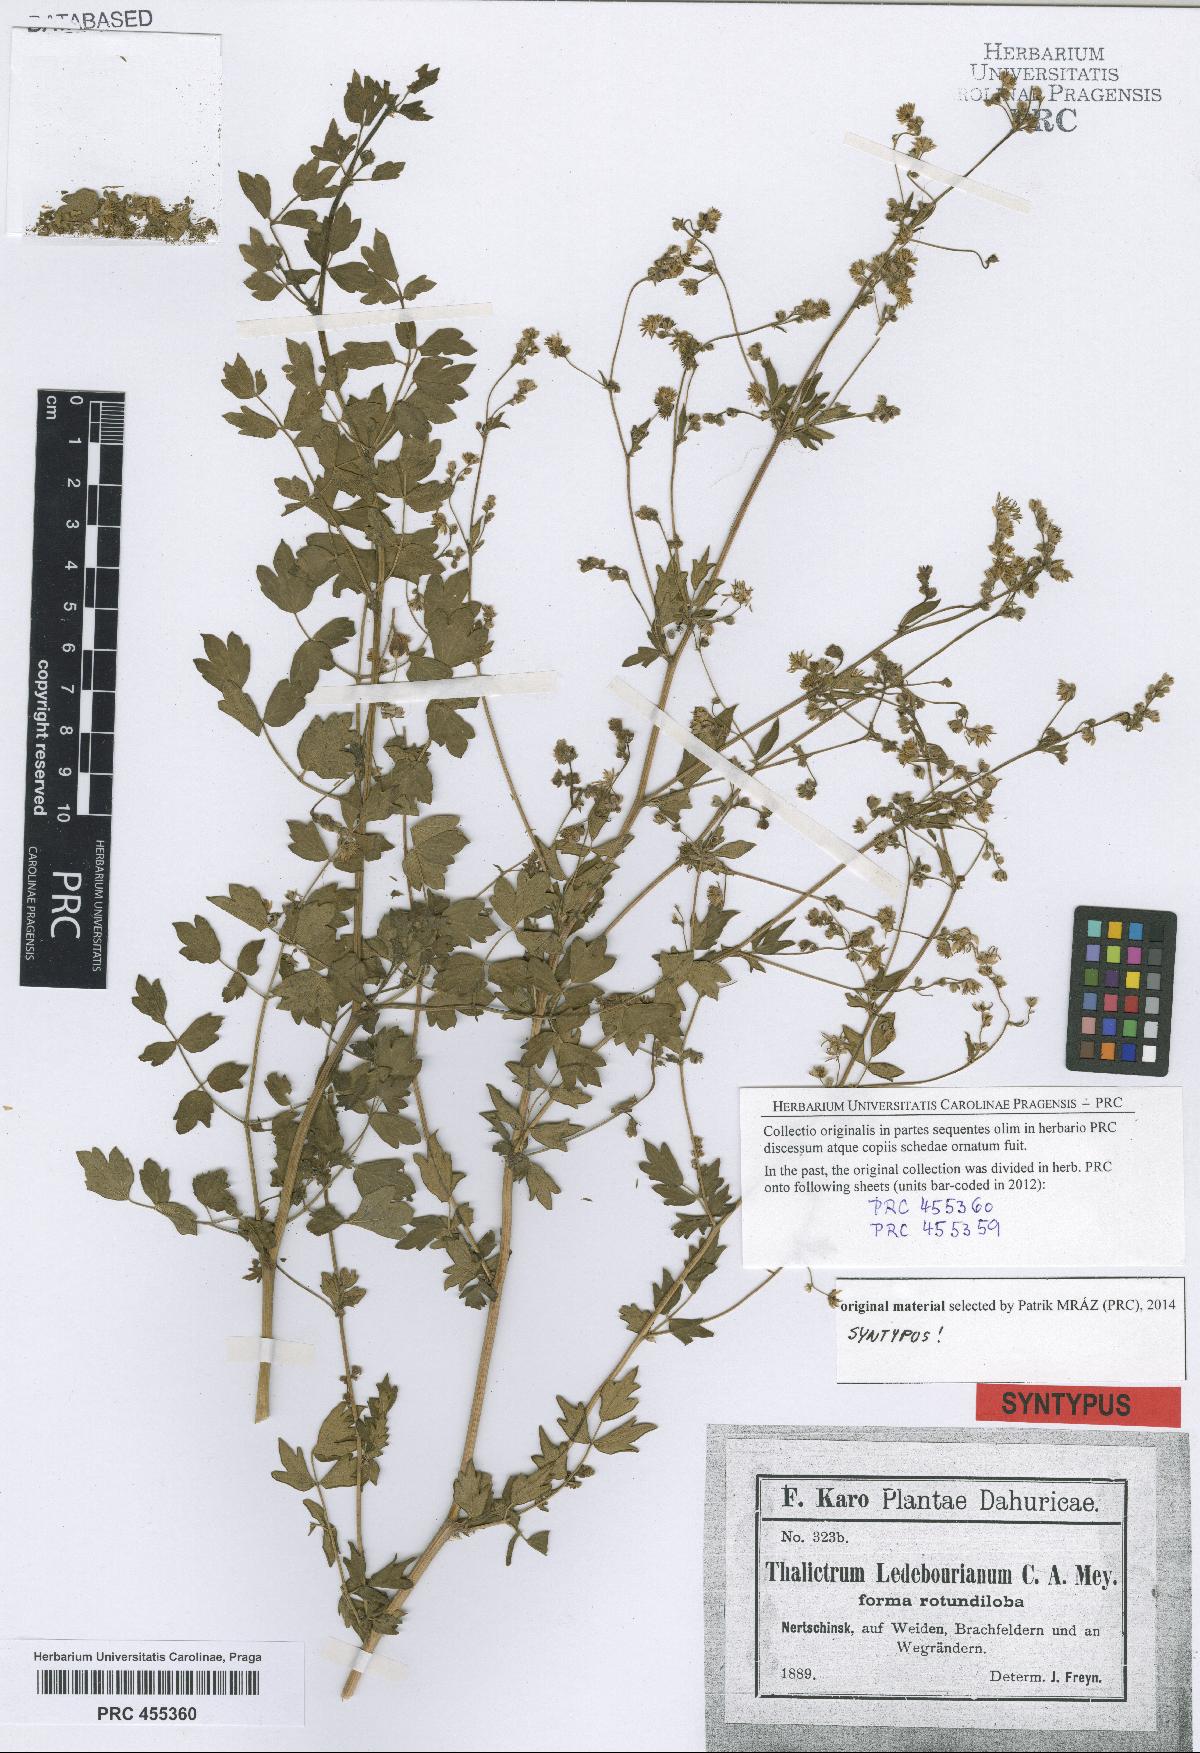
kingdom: Plantae
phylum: Tracheophyta
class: Magnoliopsida
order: Ranunculales
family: Ranunculaceae
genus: Thalictrum
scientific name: Thalictrum squarrosum
